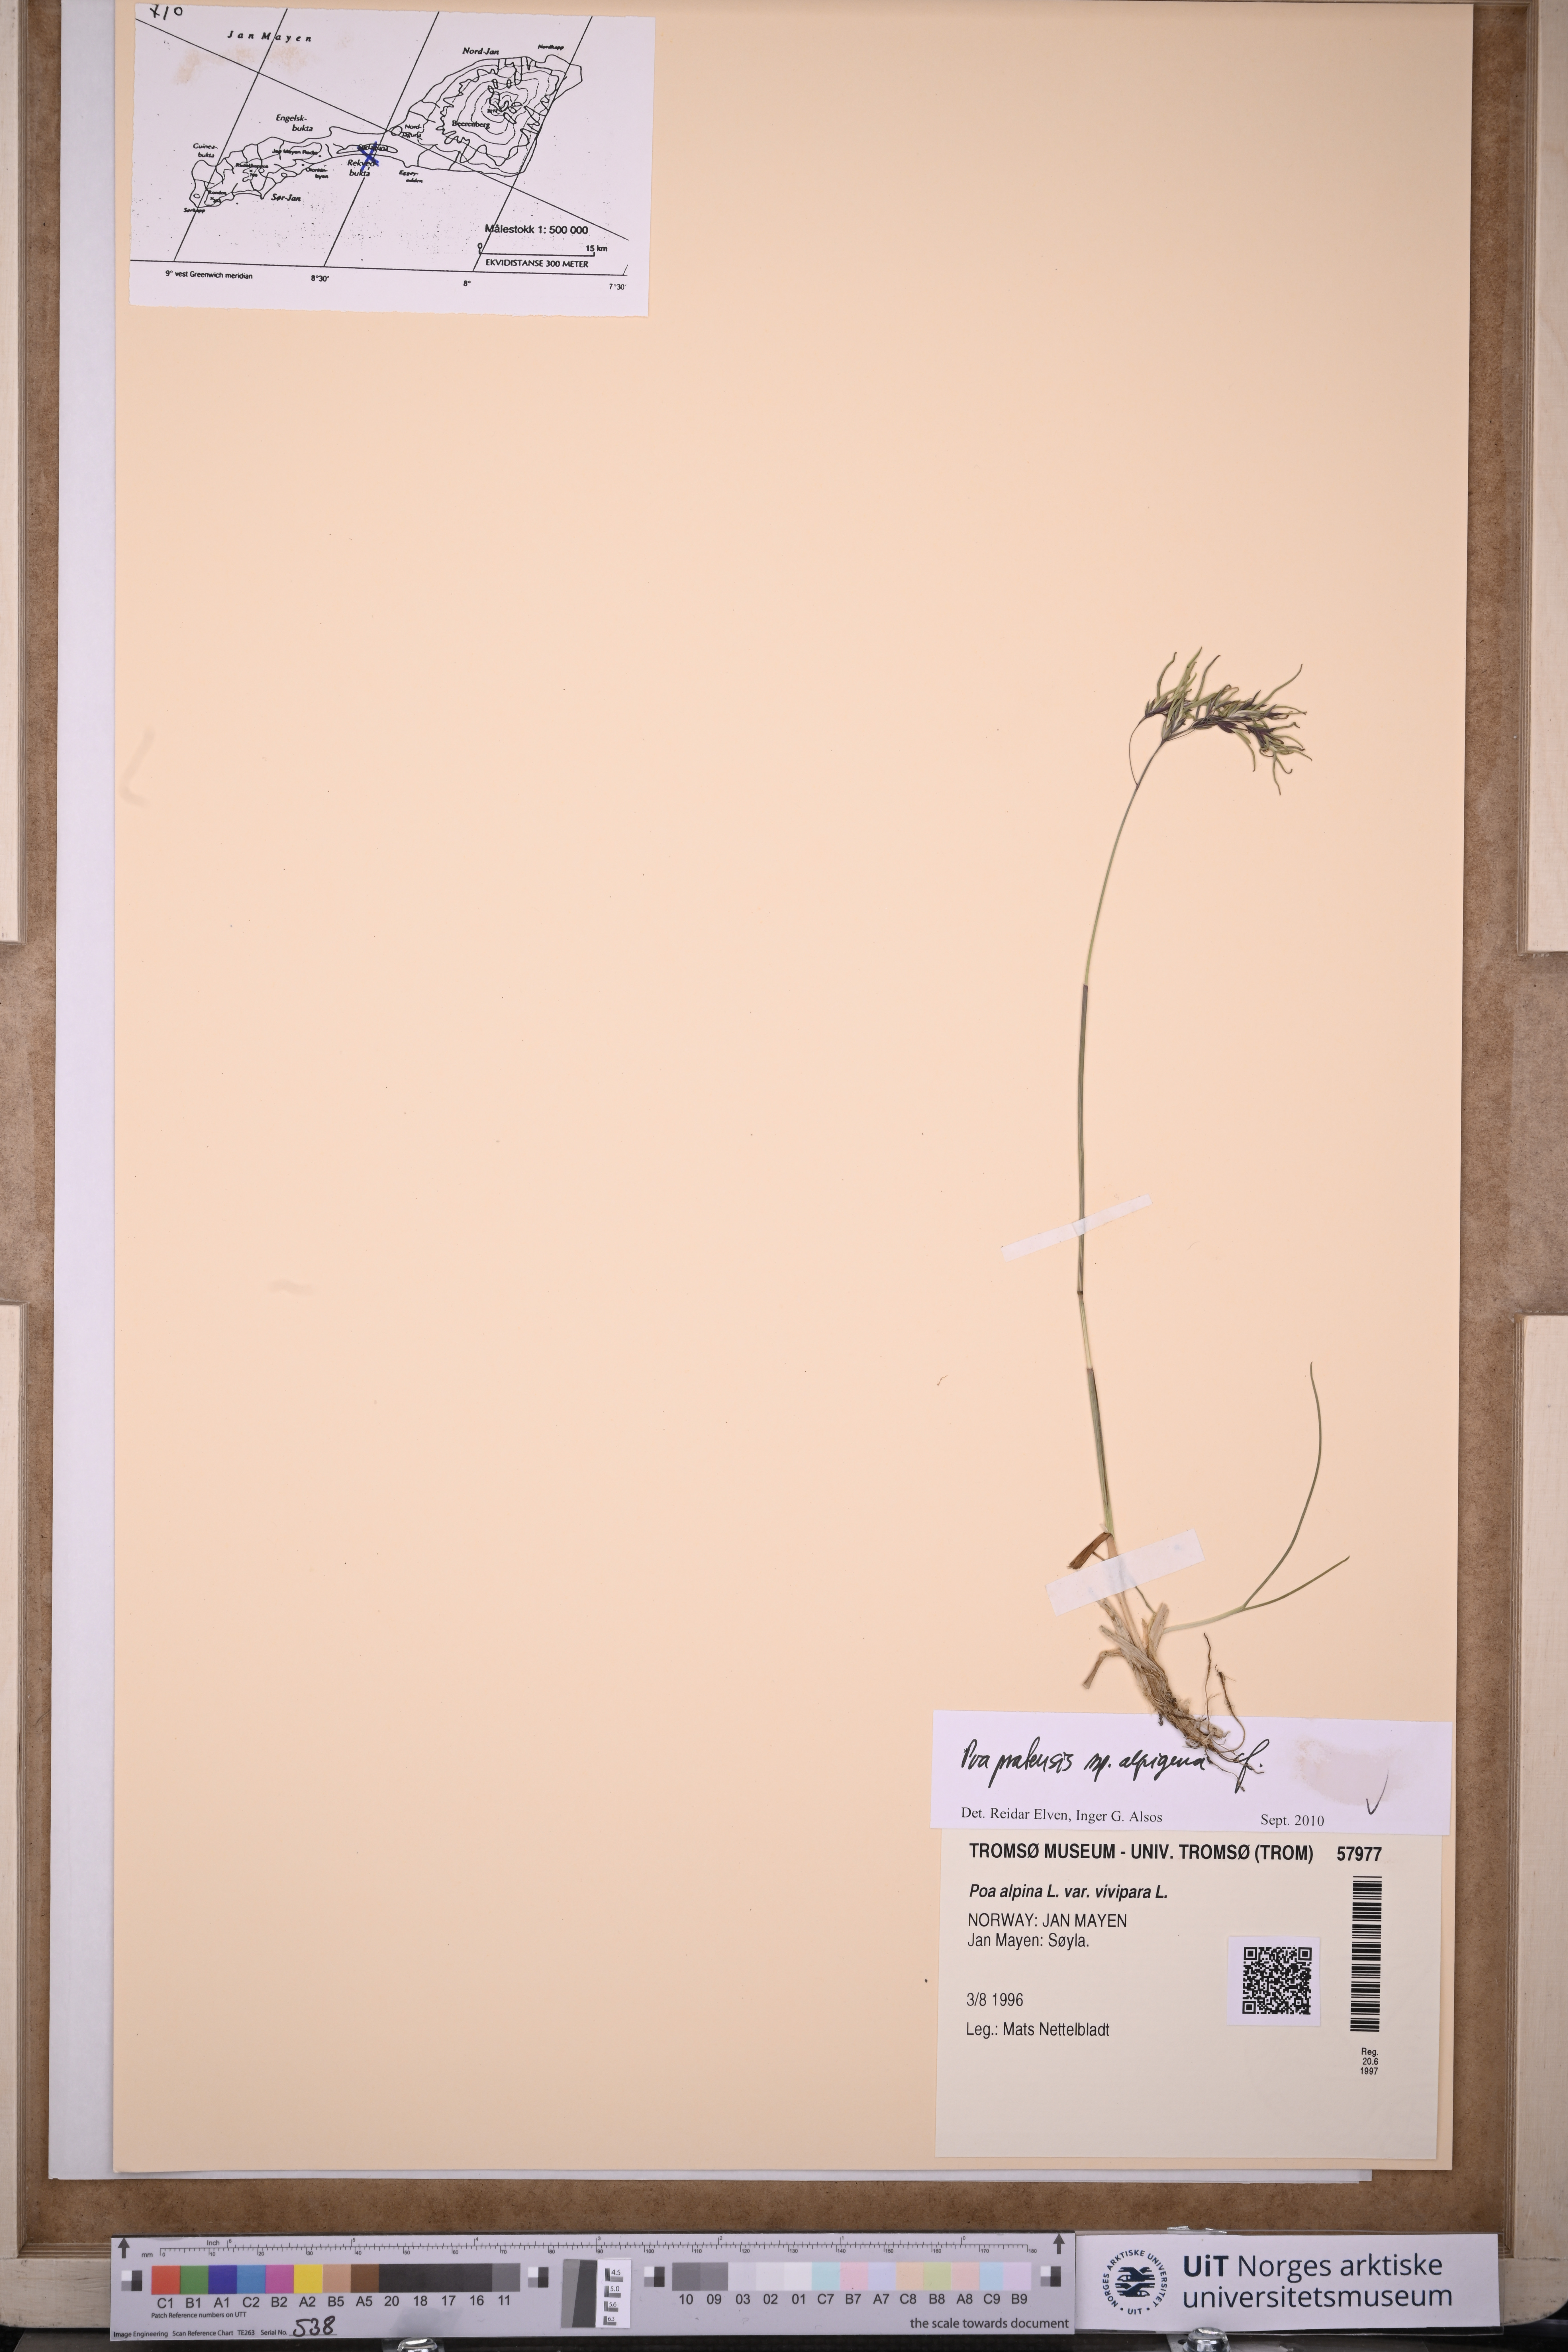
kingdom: Plantae
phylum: Tracheophyta
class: Liliopsida
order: Poales
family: Poaceae
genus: Poa
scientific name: Poa alpigena
